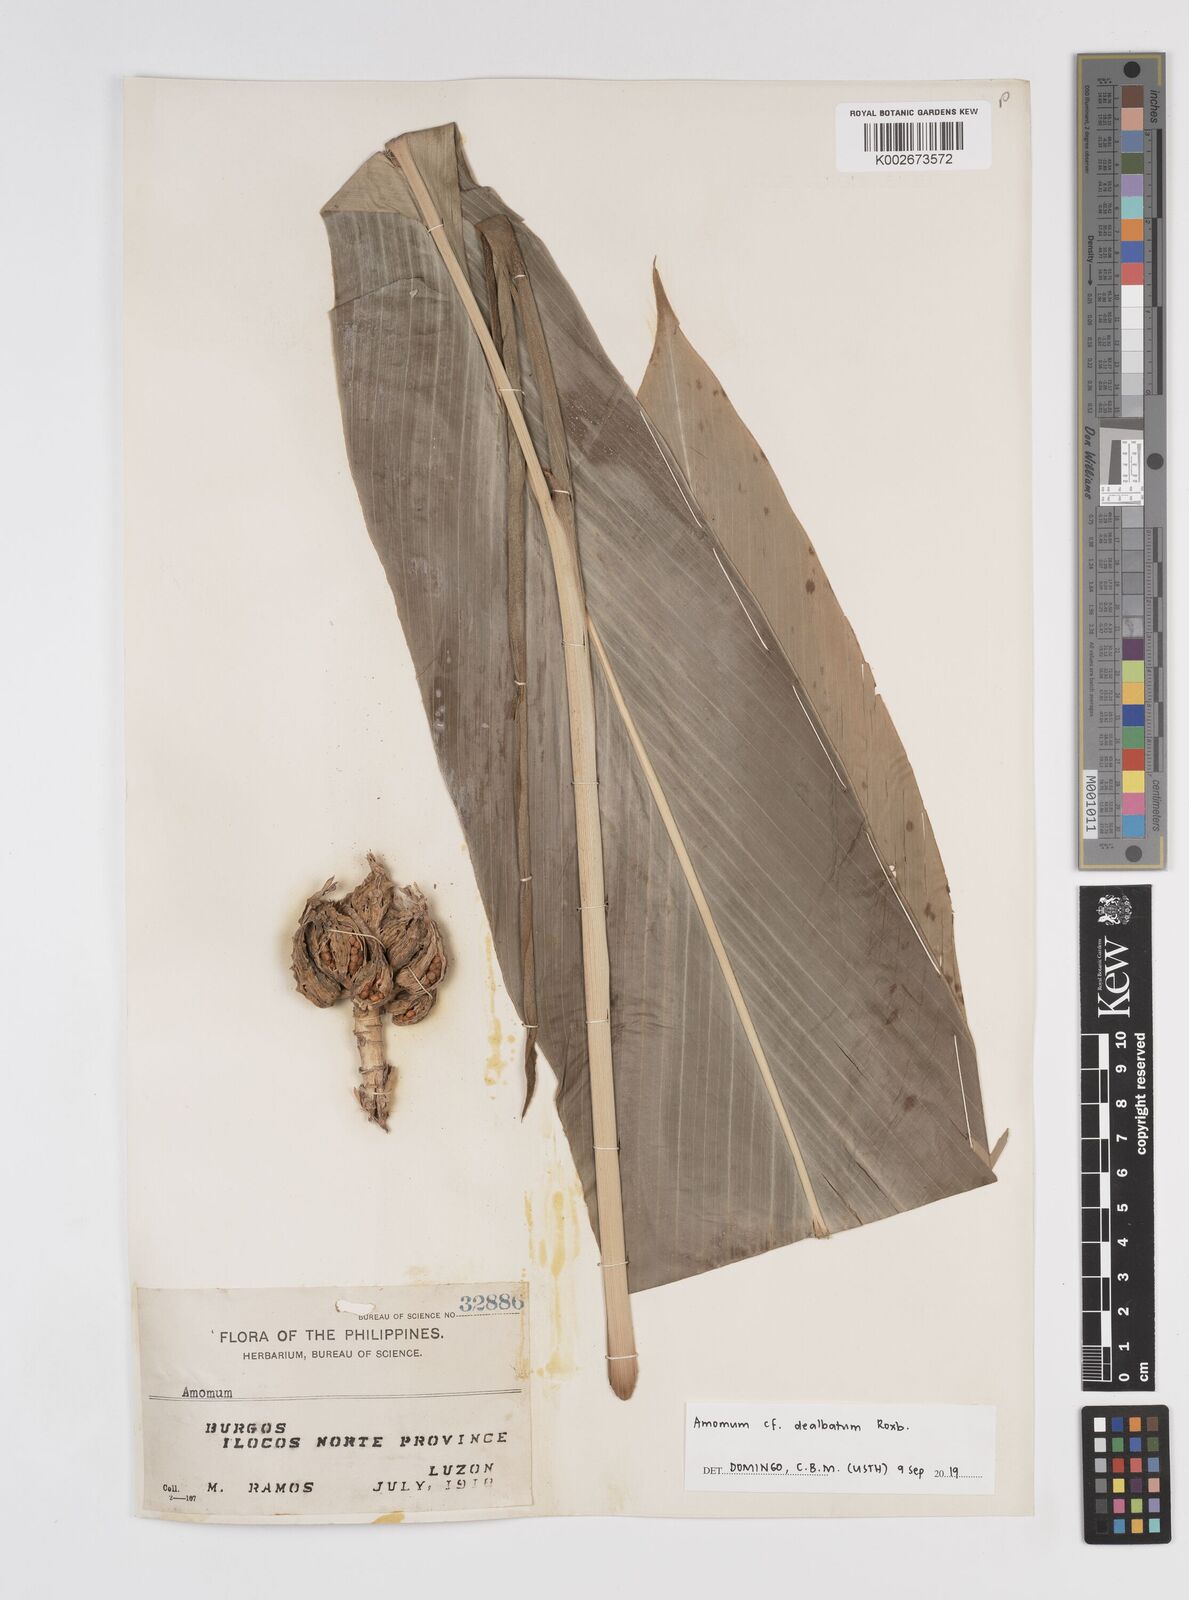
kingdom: Plantae
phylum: Tracheophyta
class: Liliopsida
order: Zingiberales
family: Zingiberaceae
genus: Amomum
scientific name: Amomum dealbatum
